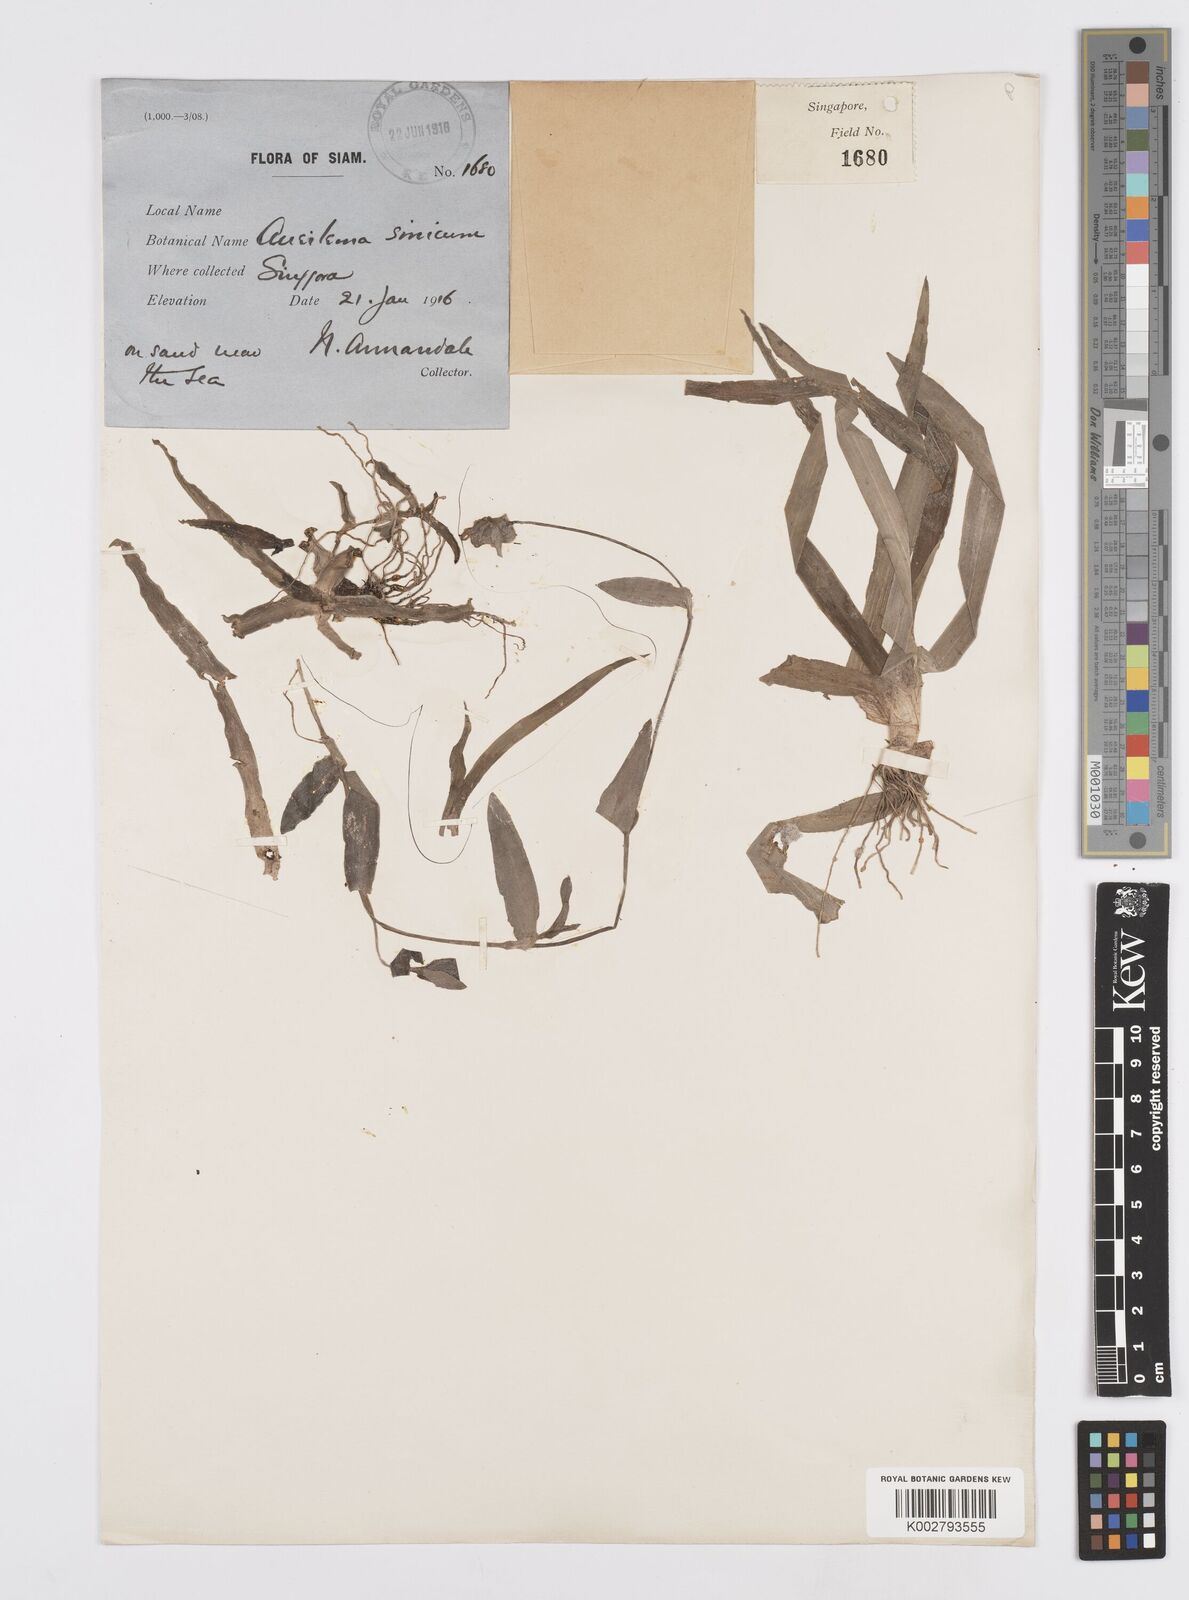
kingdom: Plantae
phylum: Tracheophyta
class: Liliopsida
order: Commelinales
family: Commelinaceae
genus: Murdannia
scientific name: Murdannia simplex
